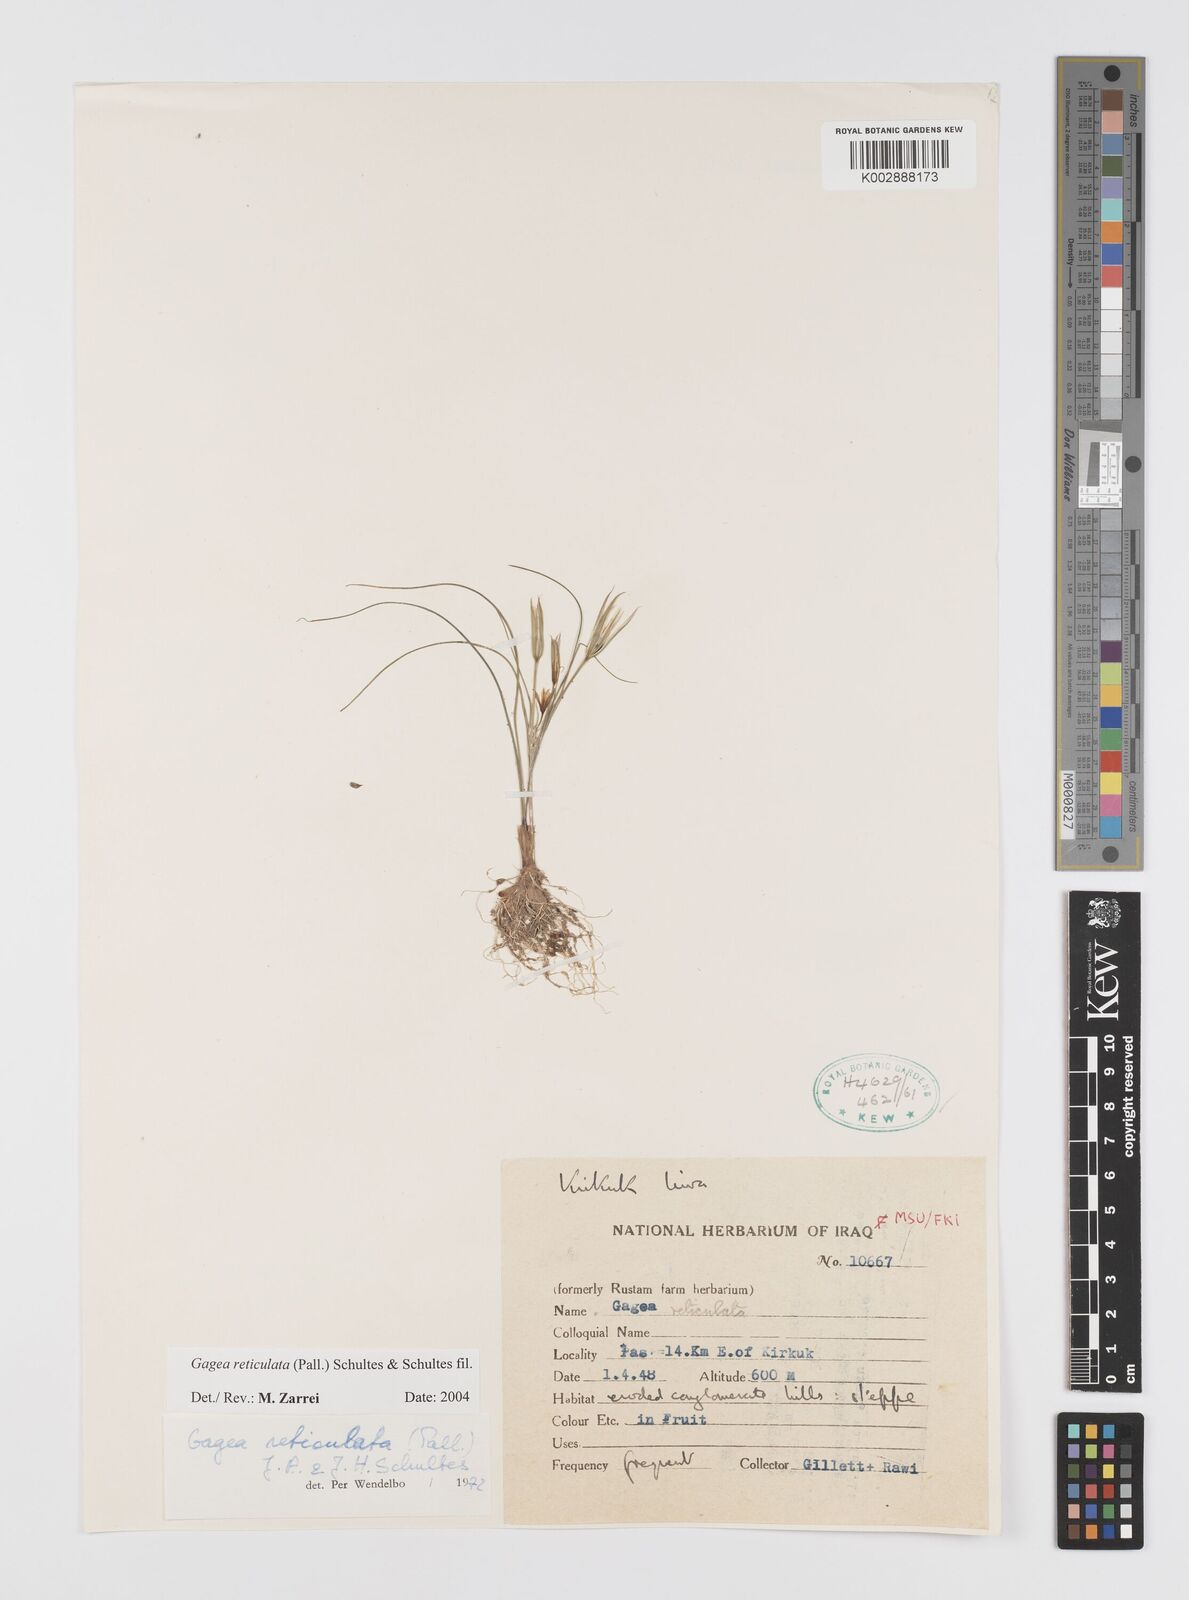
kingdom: Plantae
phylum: Tracheophyta
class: Liliopsida
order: Liliales
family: Liliaceae
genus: Gagea
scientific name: Gagea reticulata
